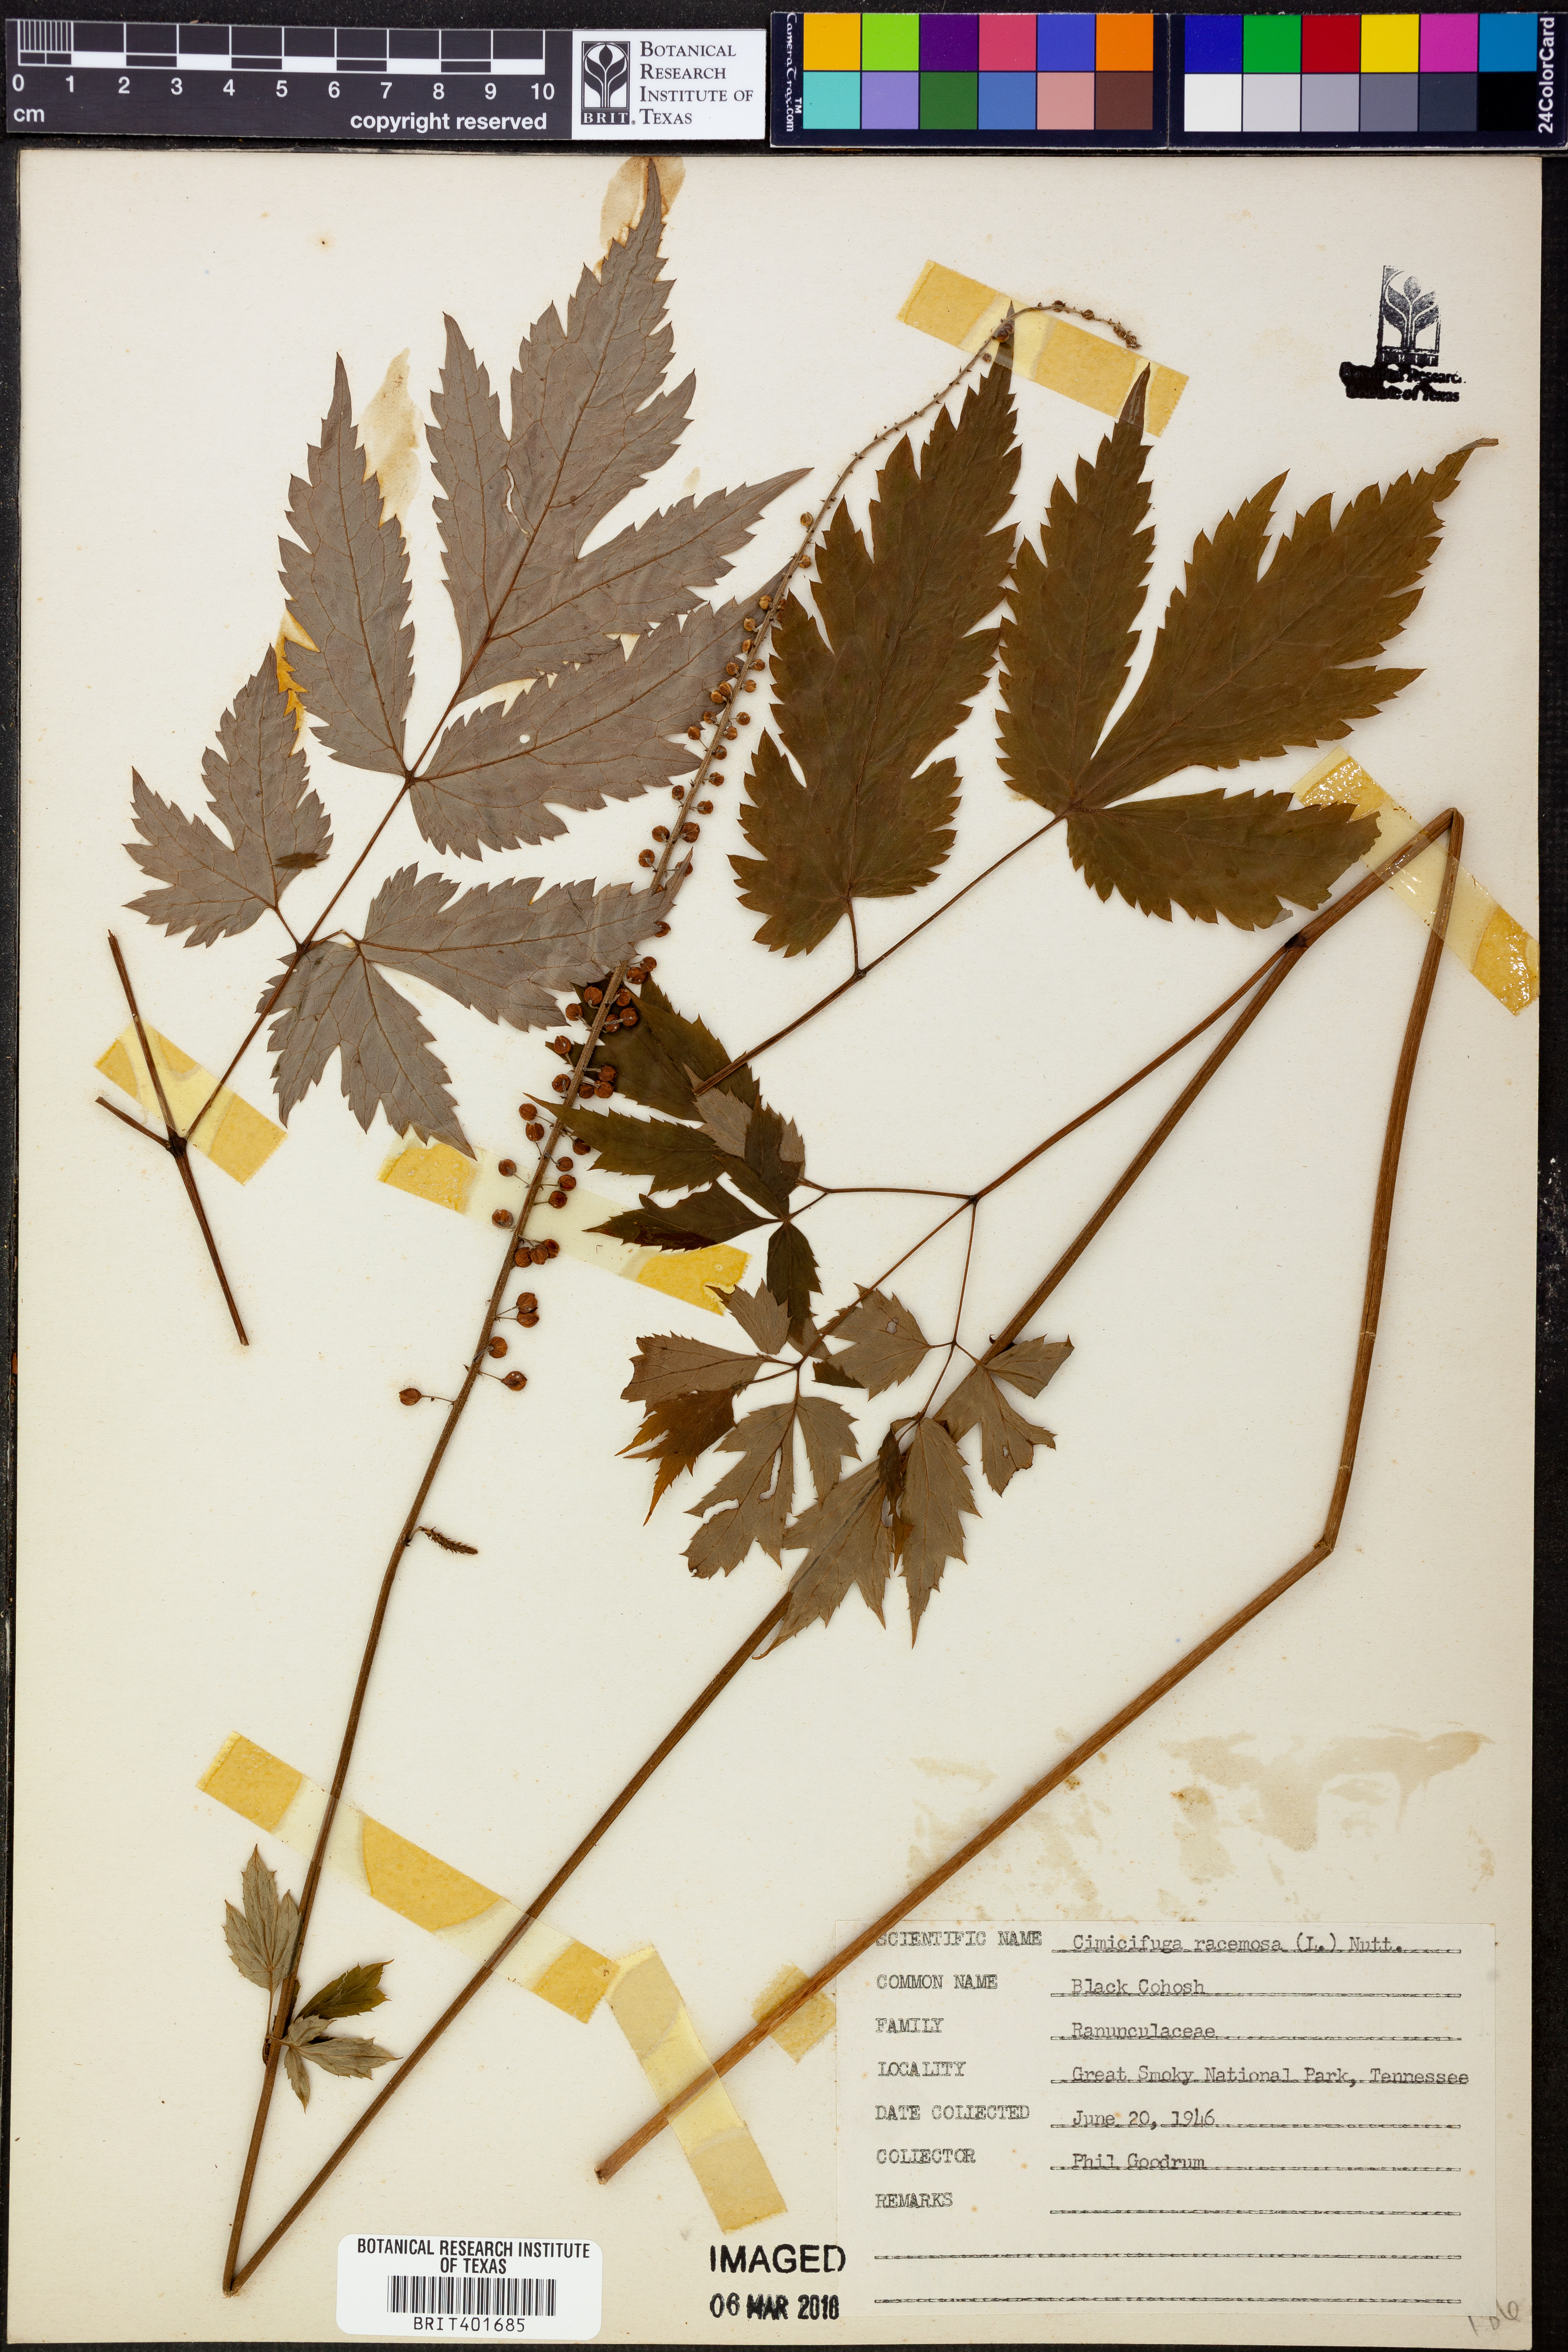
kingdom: Plantae
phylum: Tracheophyta
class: Magnoliopsida
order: Ranunculales
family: Ranunculaceae
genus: Actaea
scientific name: Actaea racemosa
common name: Black cohosh
